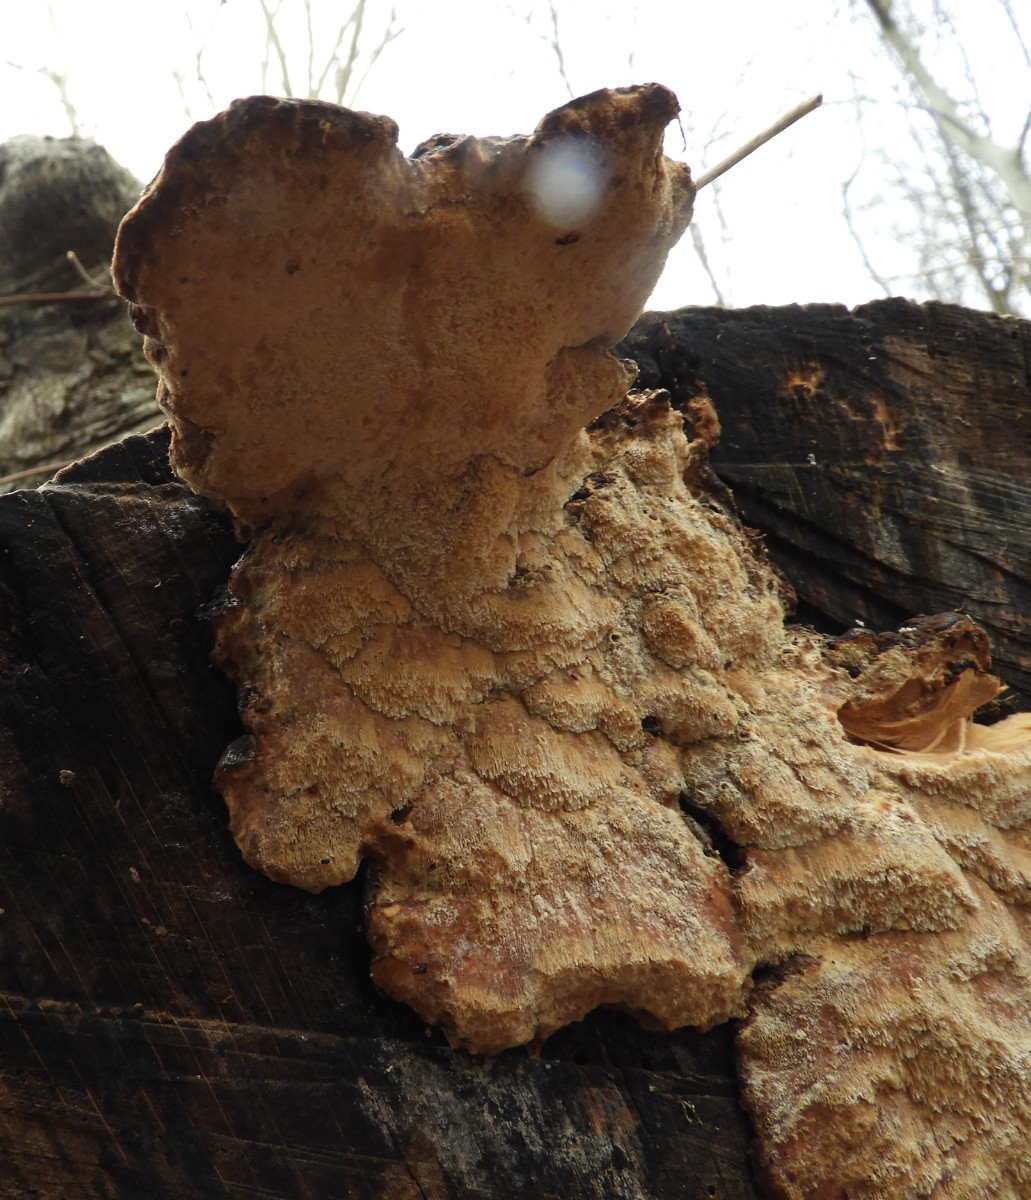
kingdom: Fungi
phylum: Basidiomycota
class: Agaricomycetes
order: Polyporales
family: Ischnodermataceae
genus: Ischnoderma
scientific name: Ischnoderma resinosum
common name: løv-tjæreporesvamp
